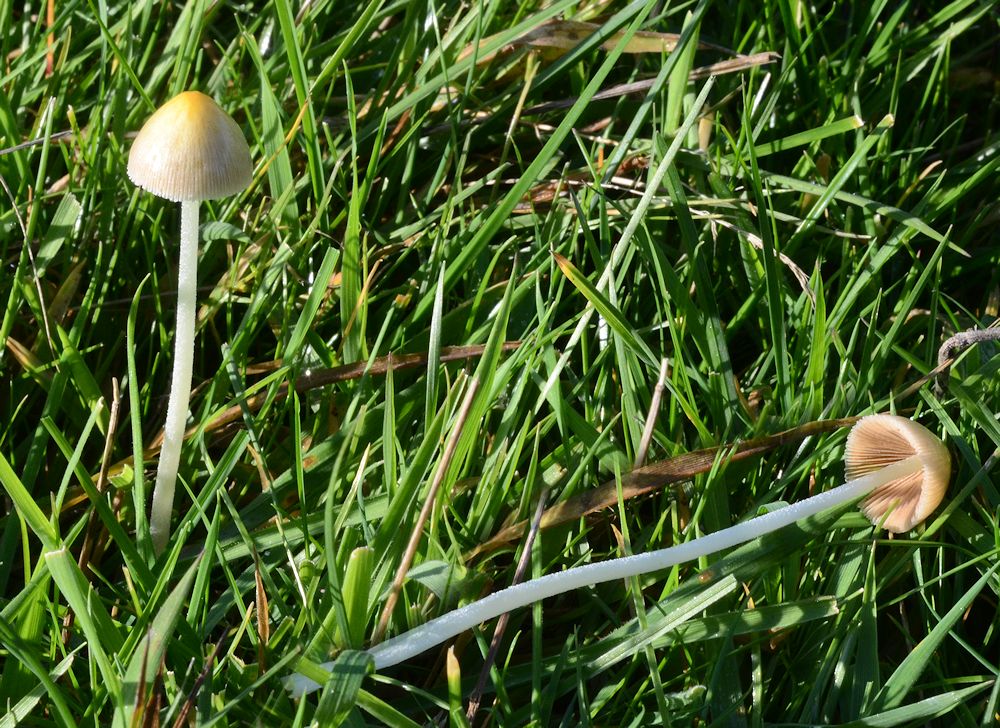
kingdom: Fungi
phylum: Basidiomycota
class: Agaricomycetes
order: Agaricales
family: Bolbitiaceae
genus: Bolbitius
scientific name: Bolbitius titubans
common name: almindelig gulhat
